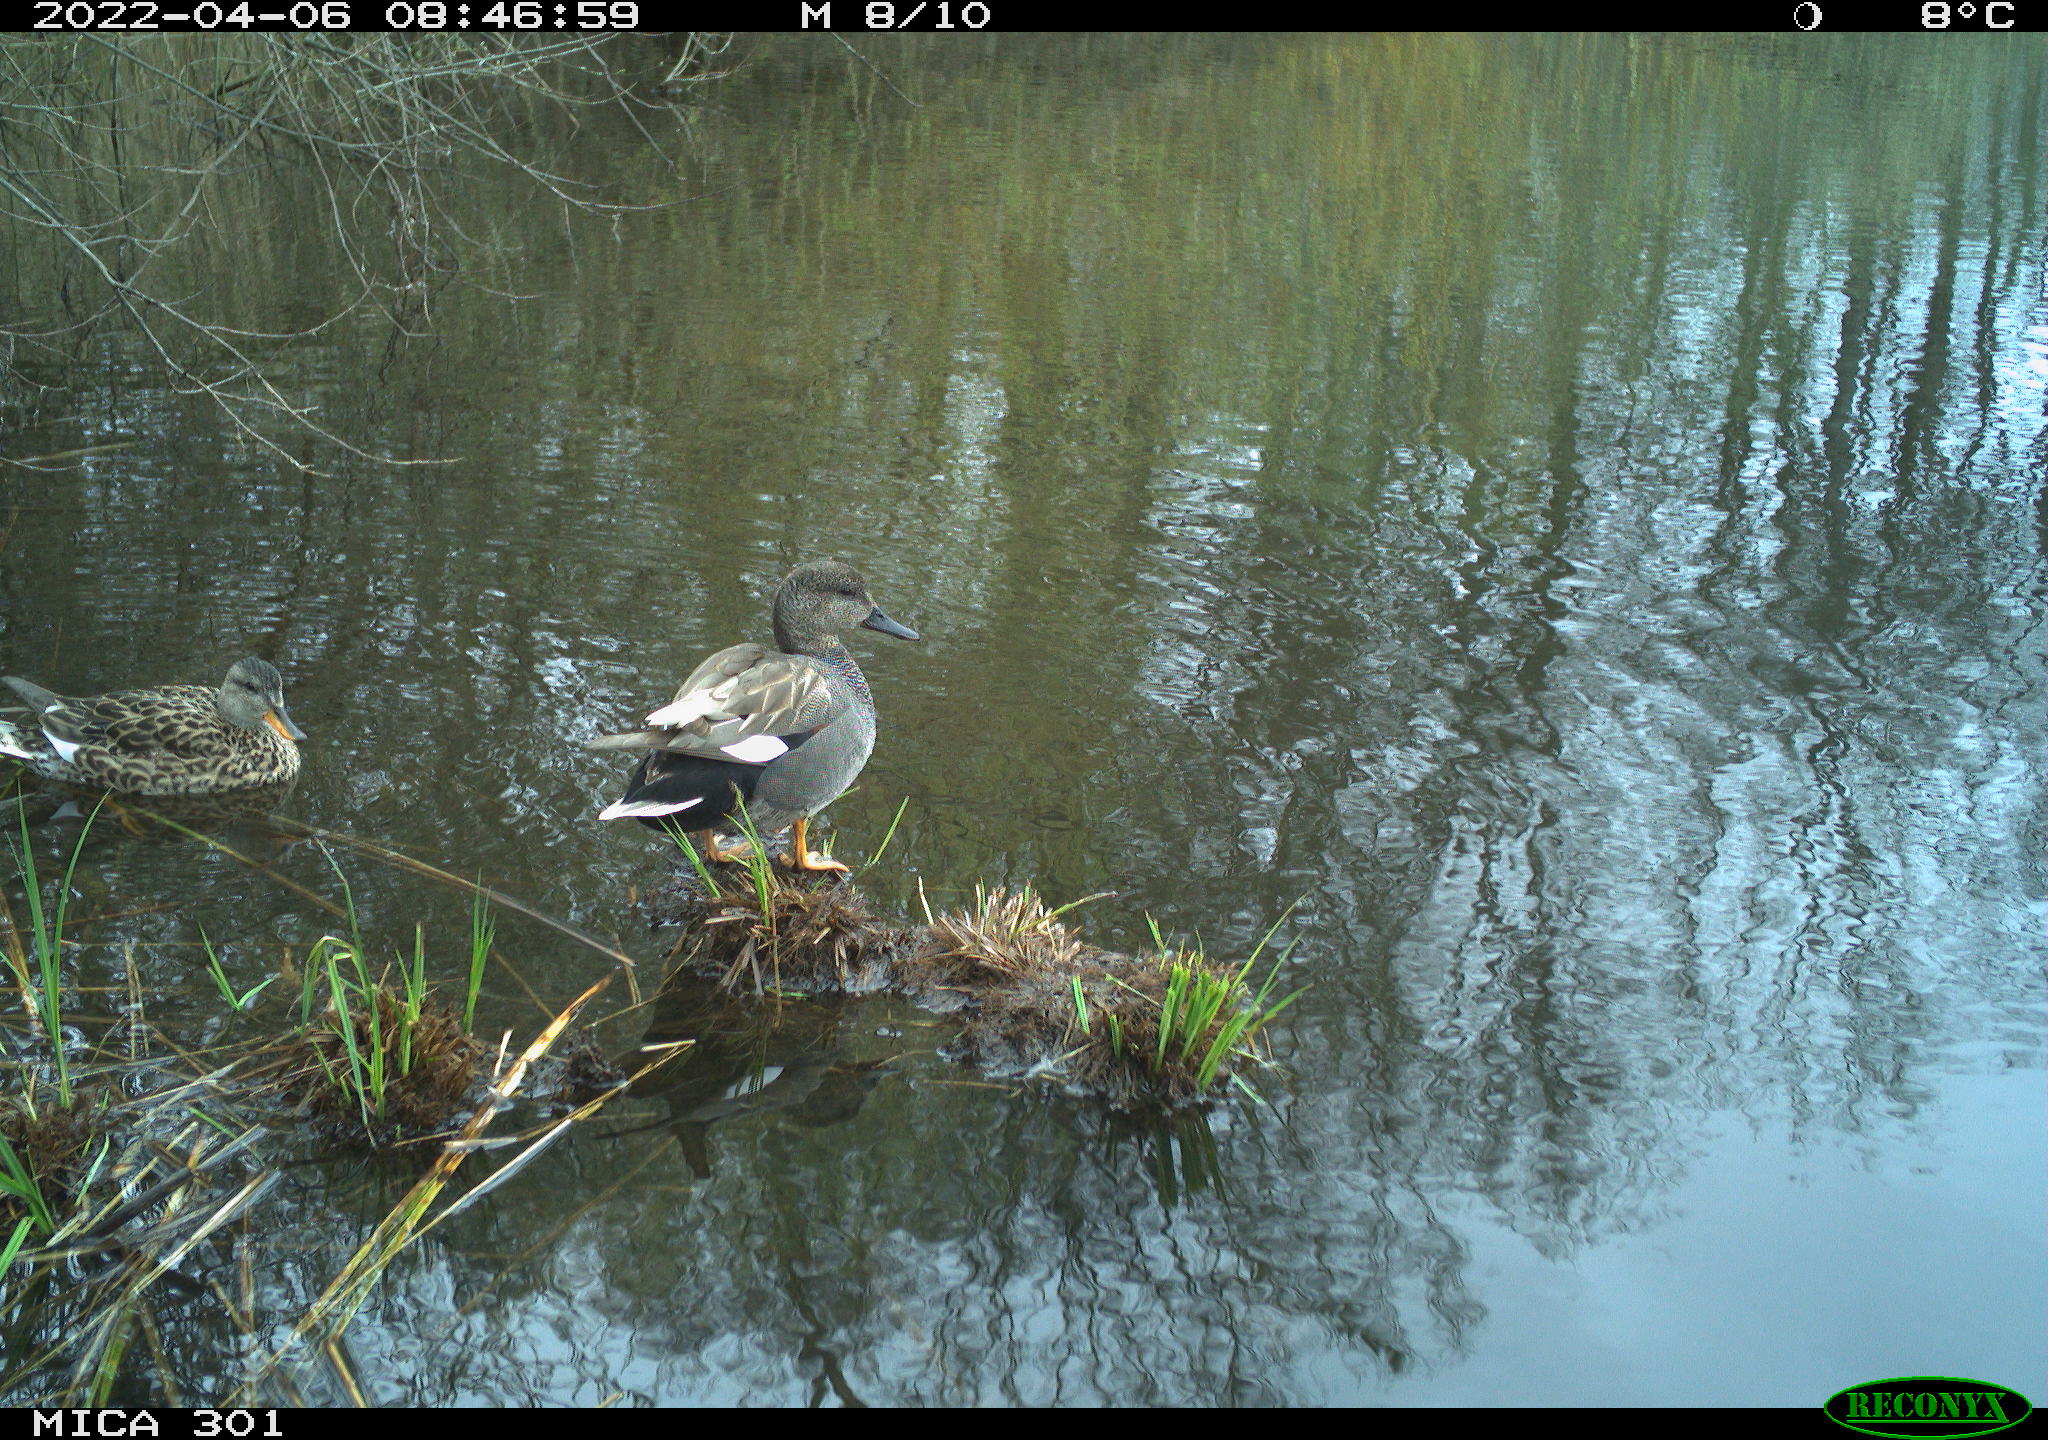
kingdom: Animalia
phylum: Chordata
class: Aves
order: Anseriformes
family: Anatidae
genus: Mareca
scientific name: Mareca strepera
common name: Gadwall
